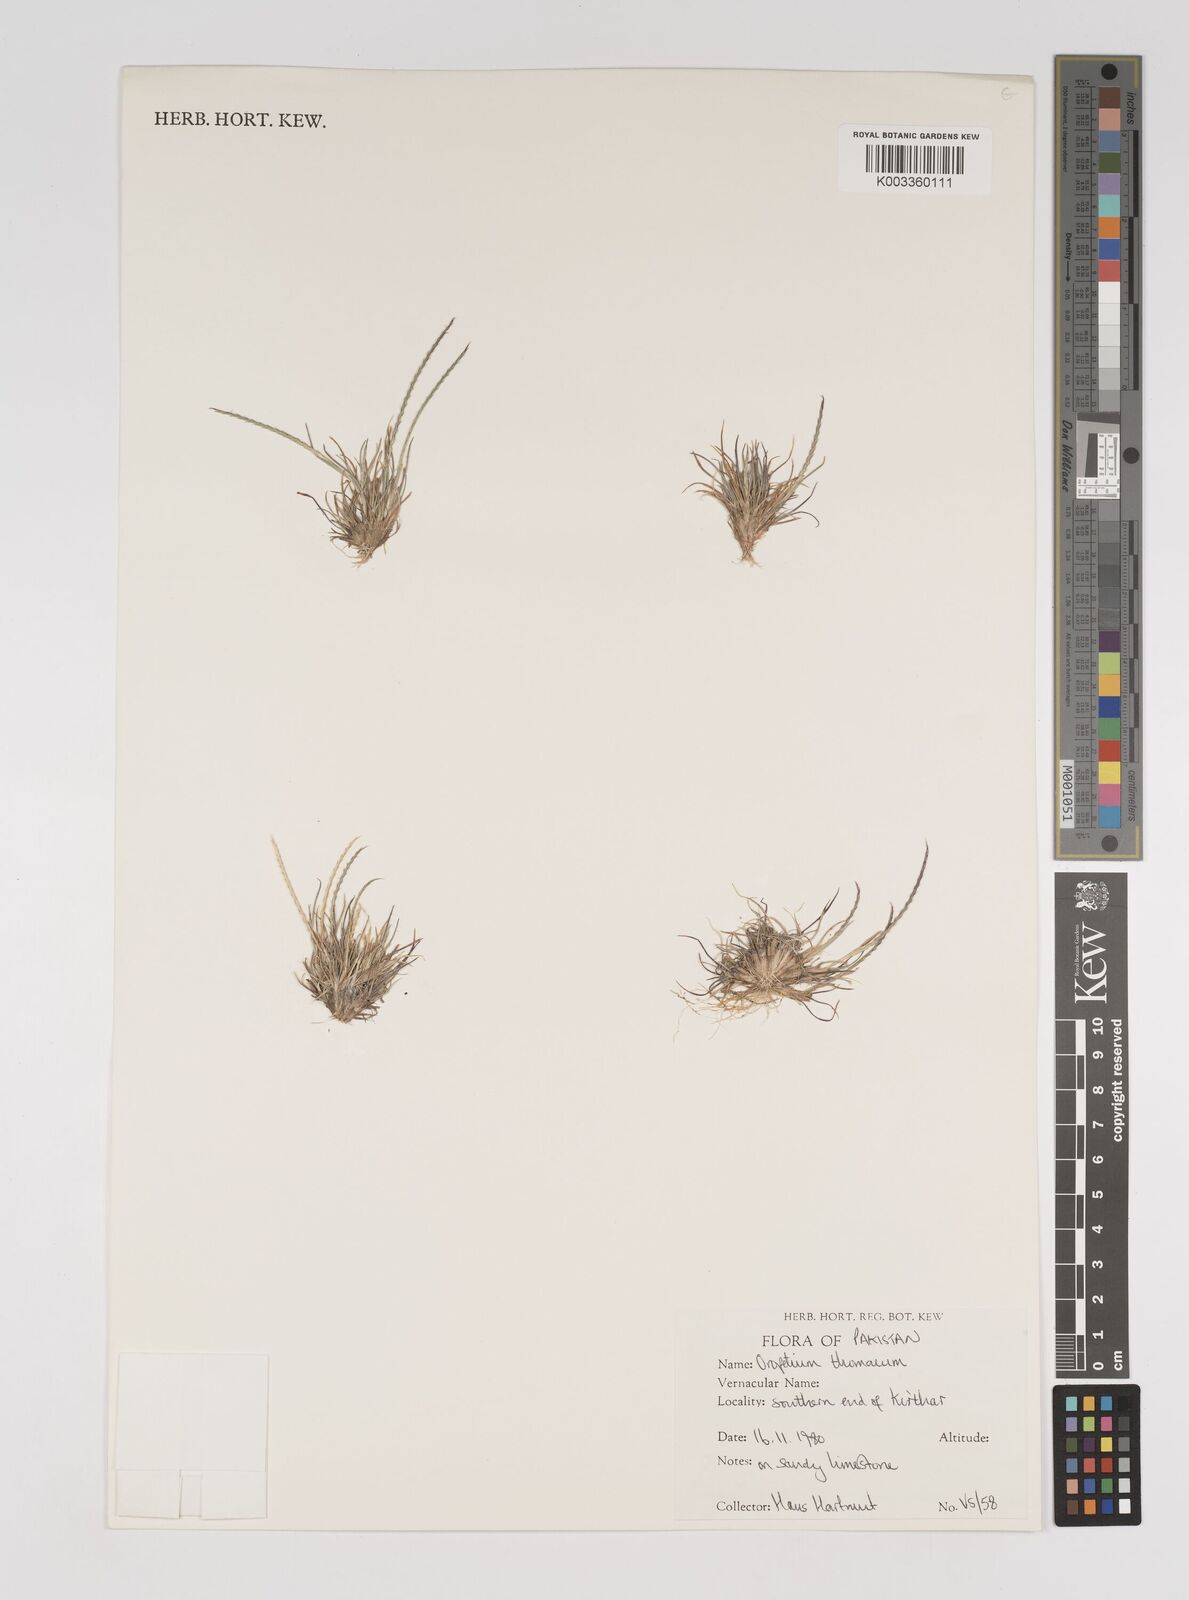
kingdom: Plantae
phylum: Tracheophyta
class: Liliopsida
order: Poales
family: Poaceae
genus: Oropetium
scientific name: Oropetium thomaeum
